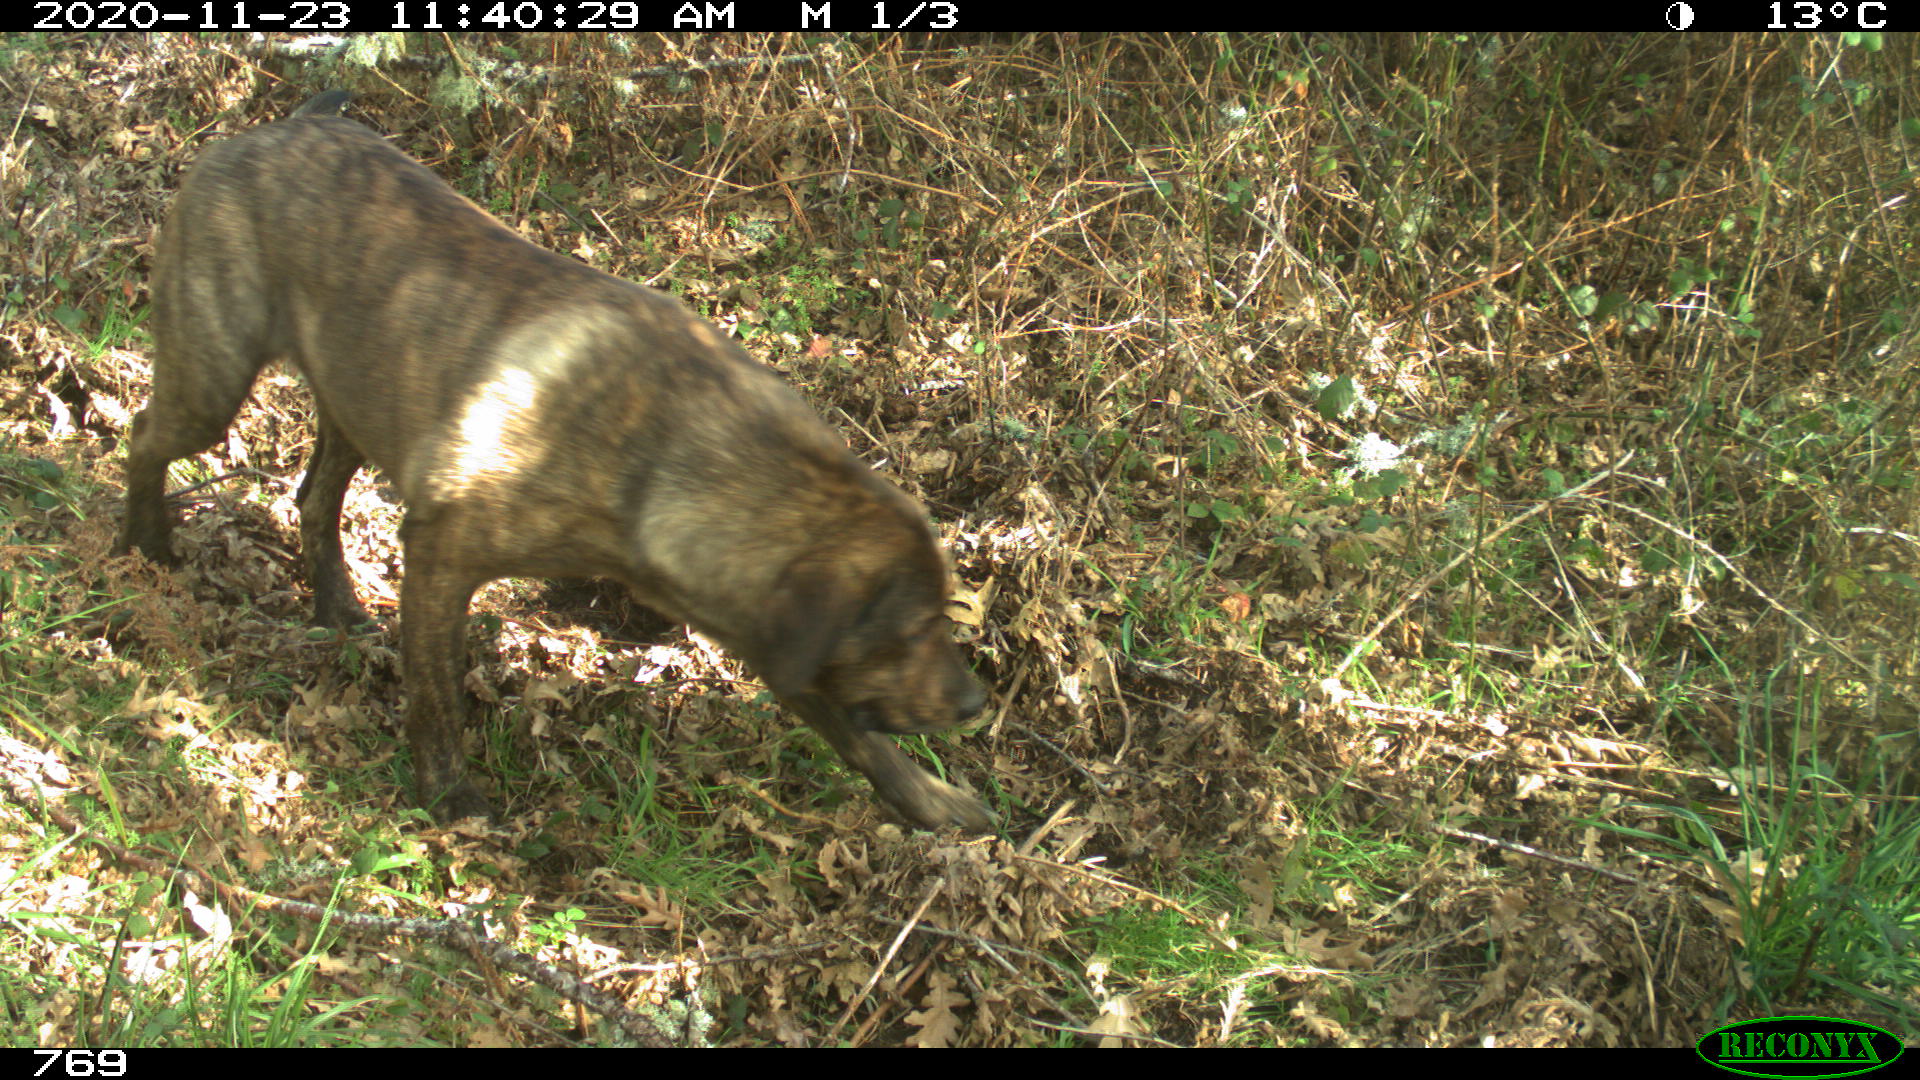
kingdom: Animalia
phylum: Chordata
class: Mammalia
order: Carnivora
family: Canidae
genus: Canis
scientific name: Canis lupus
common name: Gray wolf
